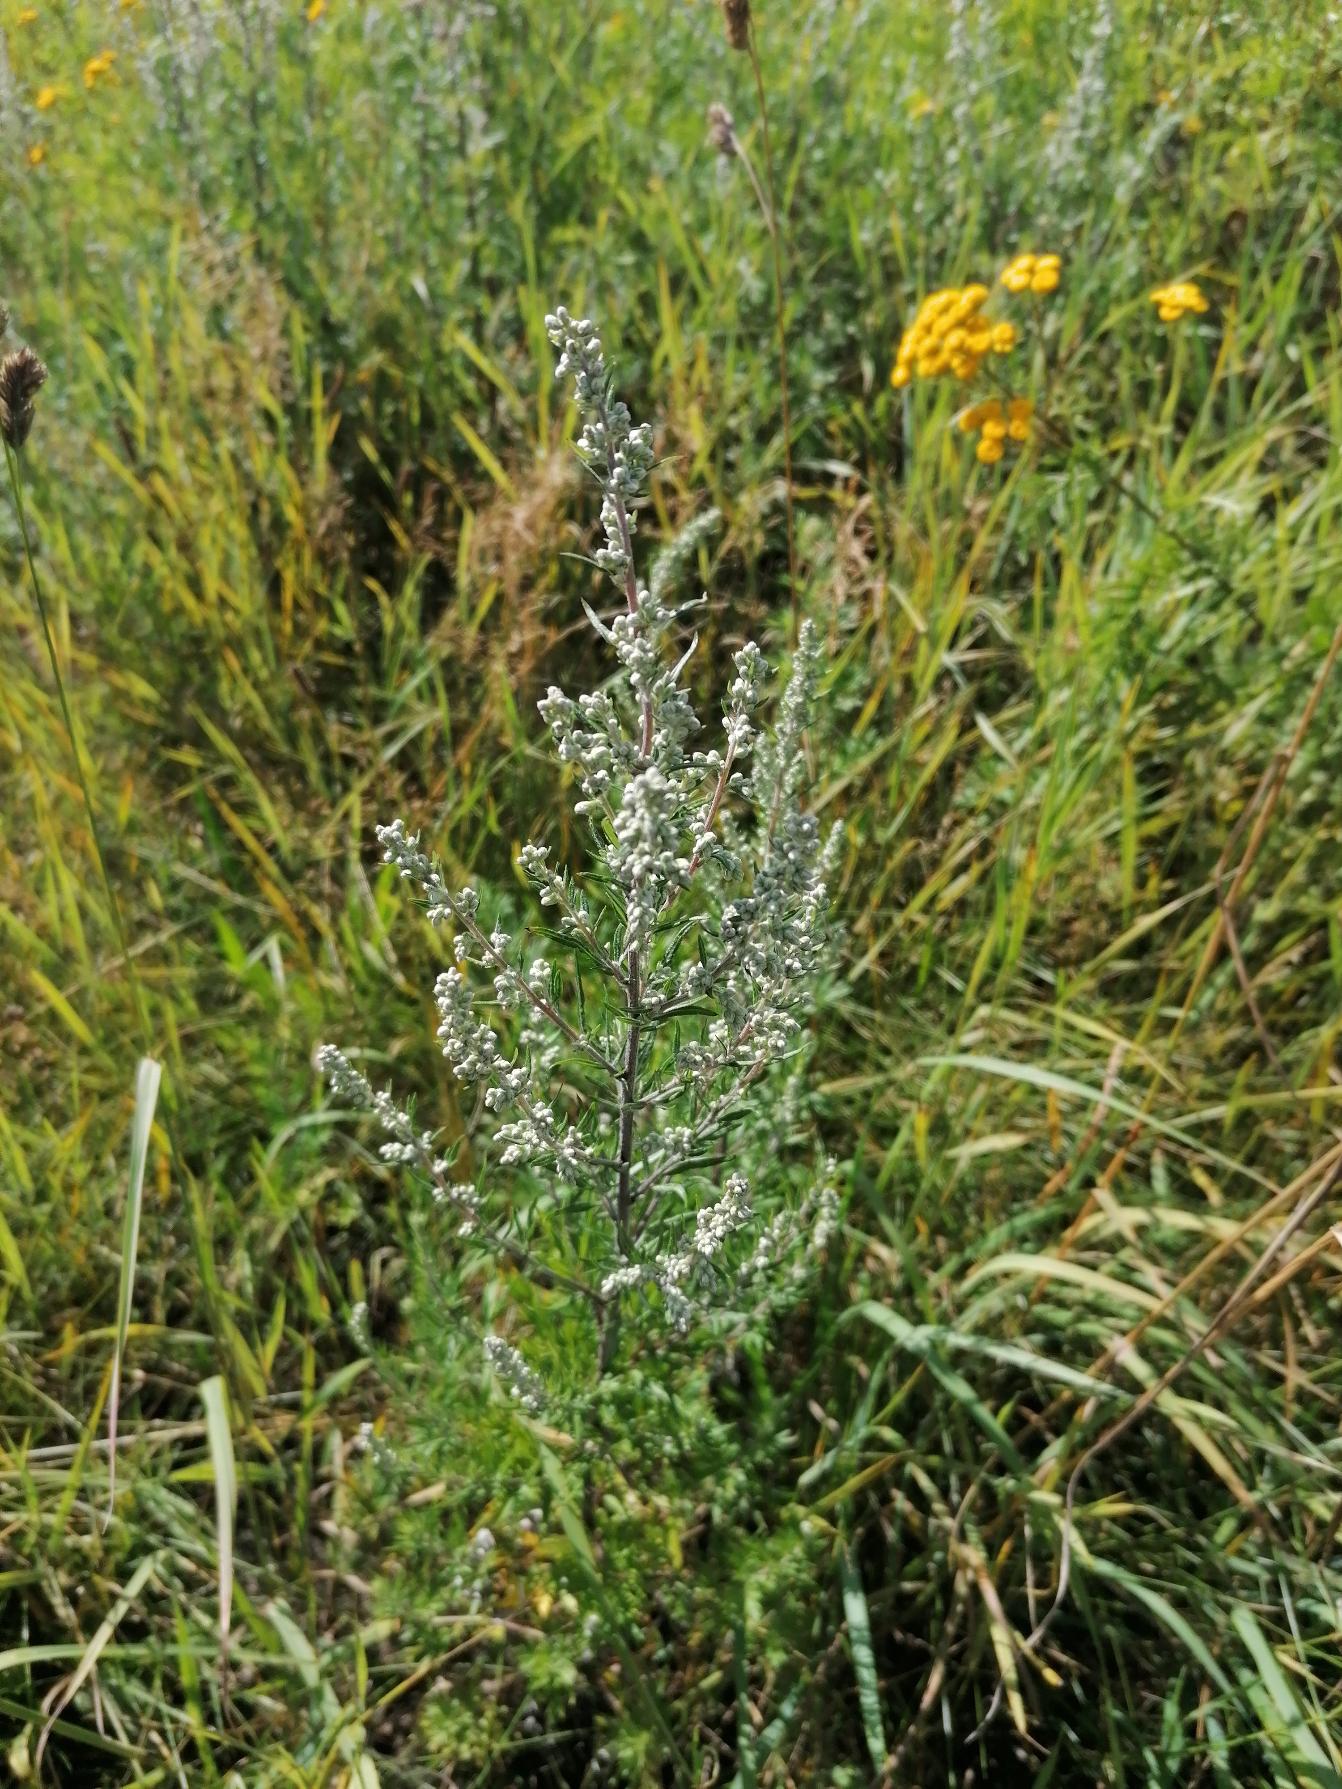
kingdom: Plantae
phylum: Tracheophyta
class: Magnoliopsida
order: Asterales
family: Asteraceae
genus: Artemisia
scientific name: Artemisia vulgaris
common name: Grå-bynke
